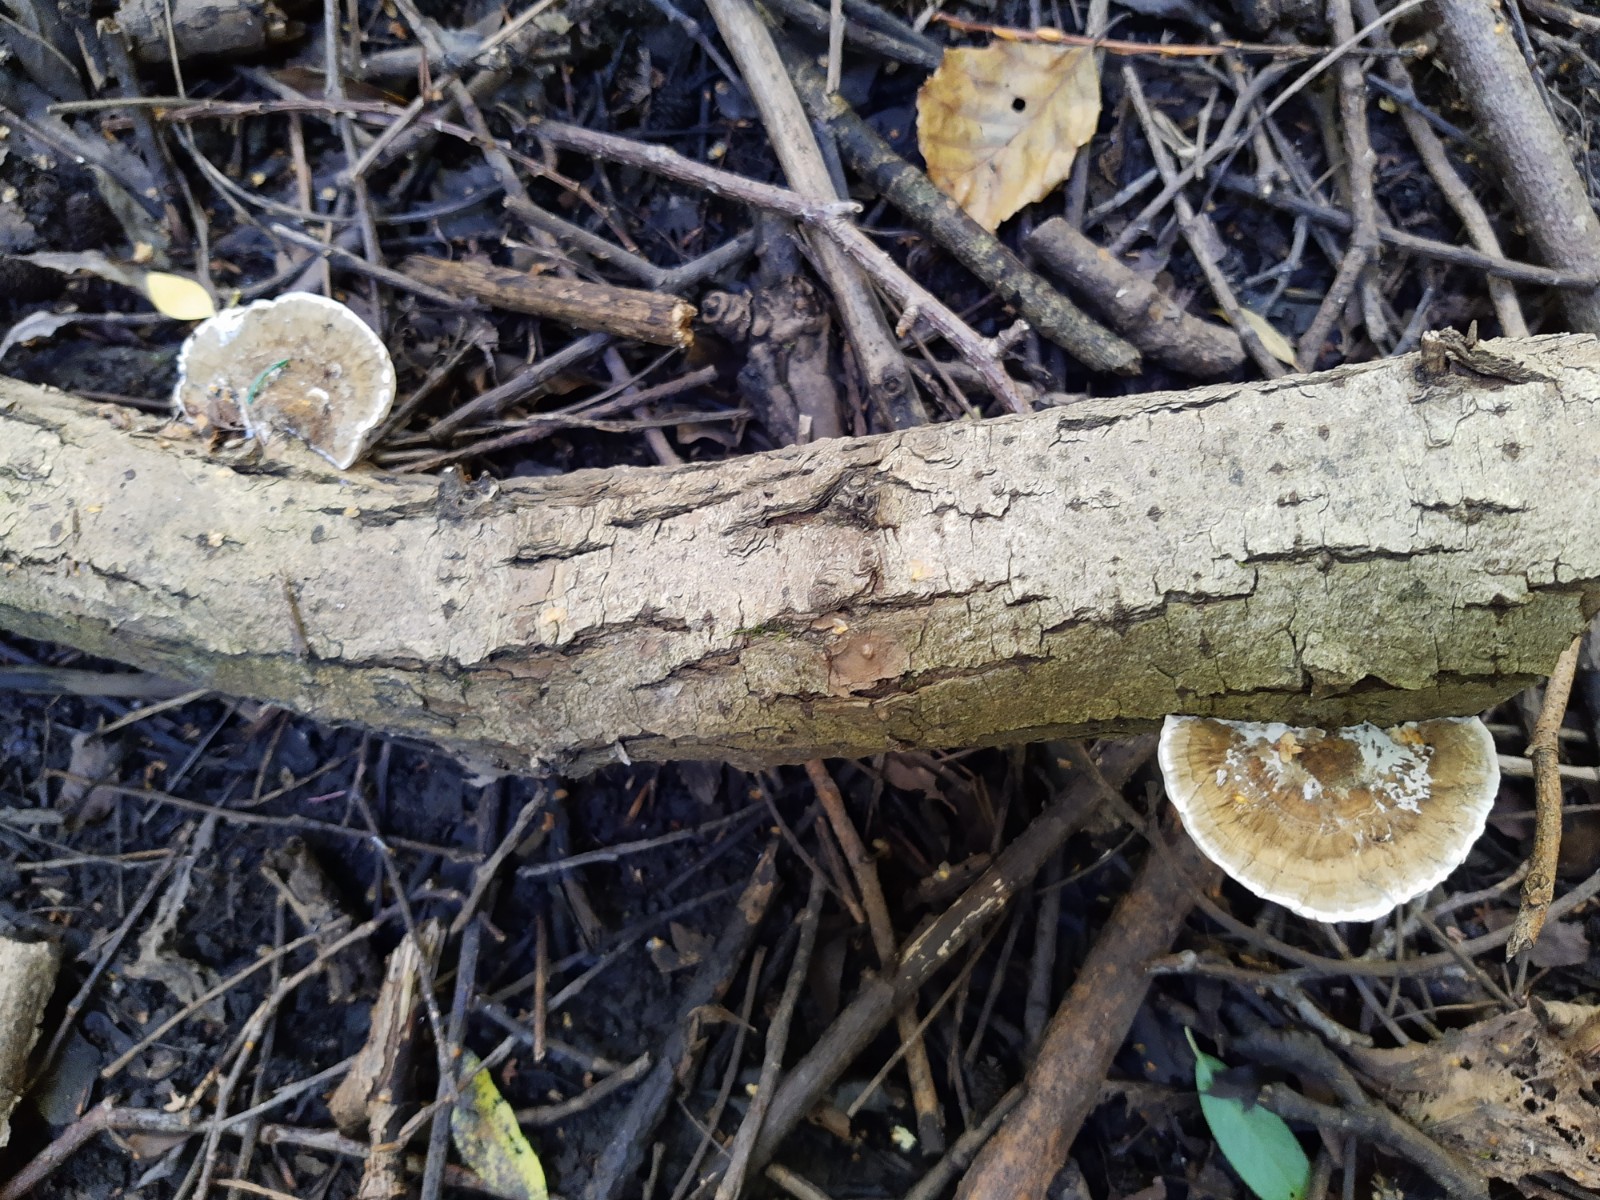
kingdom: Fungi
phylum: Basidiomycota
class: Agaricomycetes
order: Polyporales
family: Polyporaceae
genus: Daedaleopsis
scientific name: Daedaleopsis confragosa
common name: rødmende læderporesvamp
